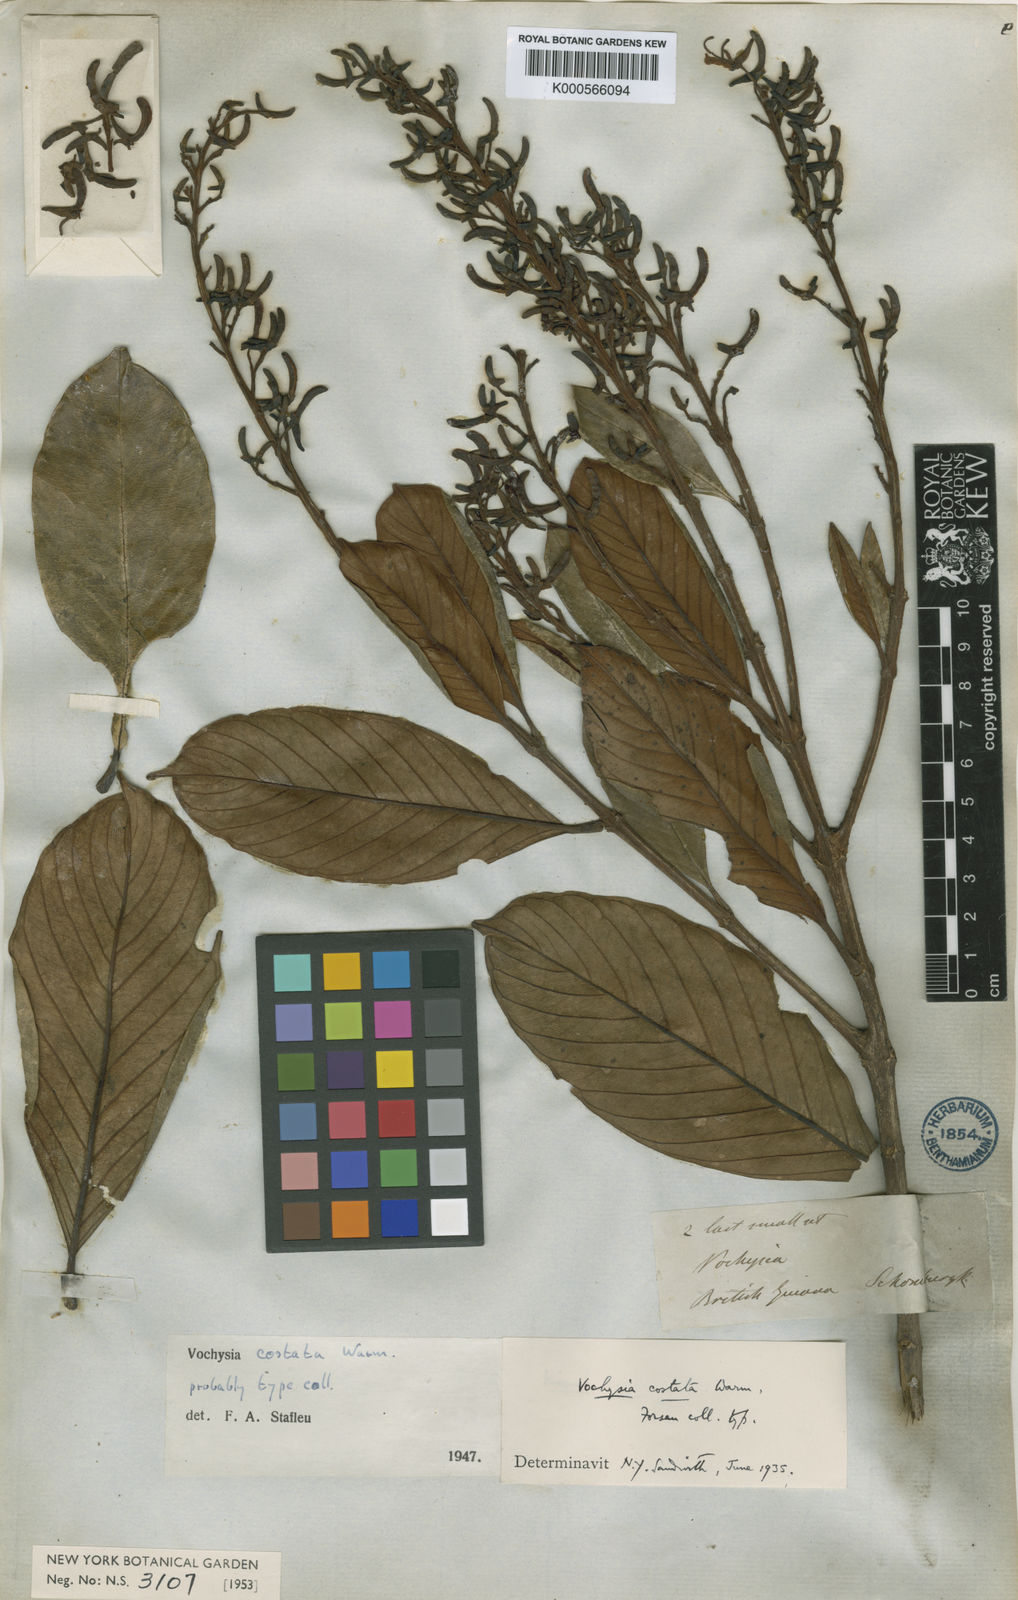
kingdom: Plantae
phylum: Tracheophyta
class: Magnoliopsida
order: Myrtales
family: Vochysiaceae
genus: Vochysia
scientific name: Vochysia costata
